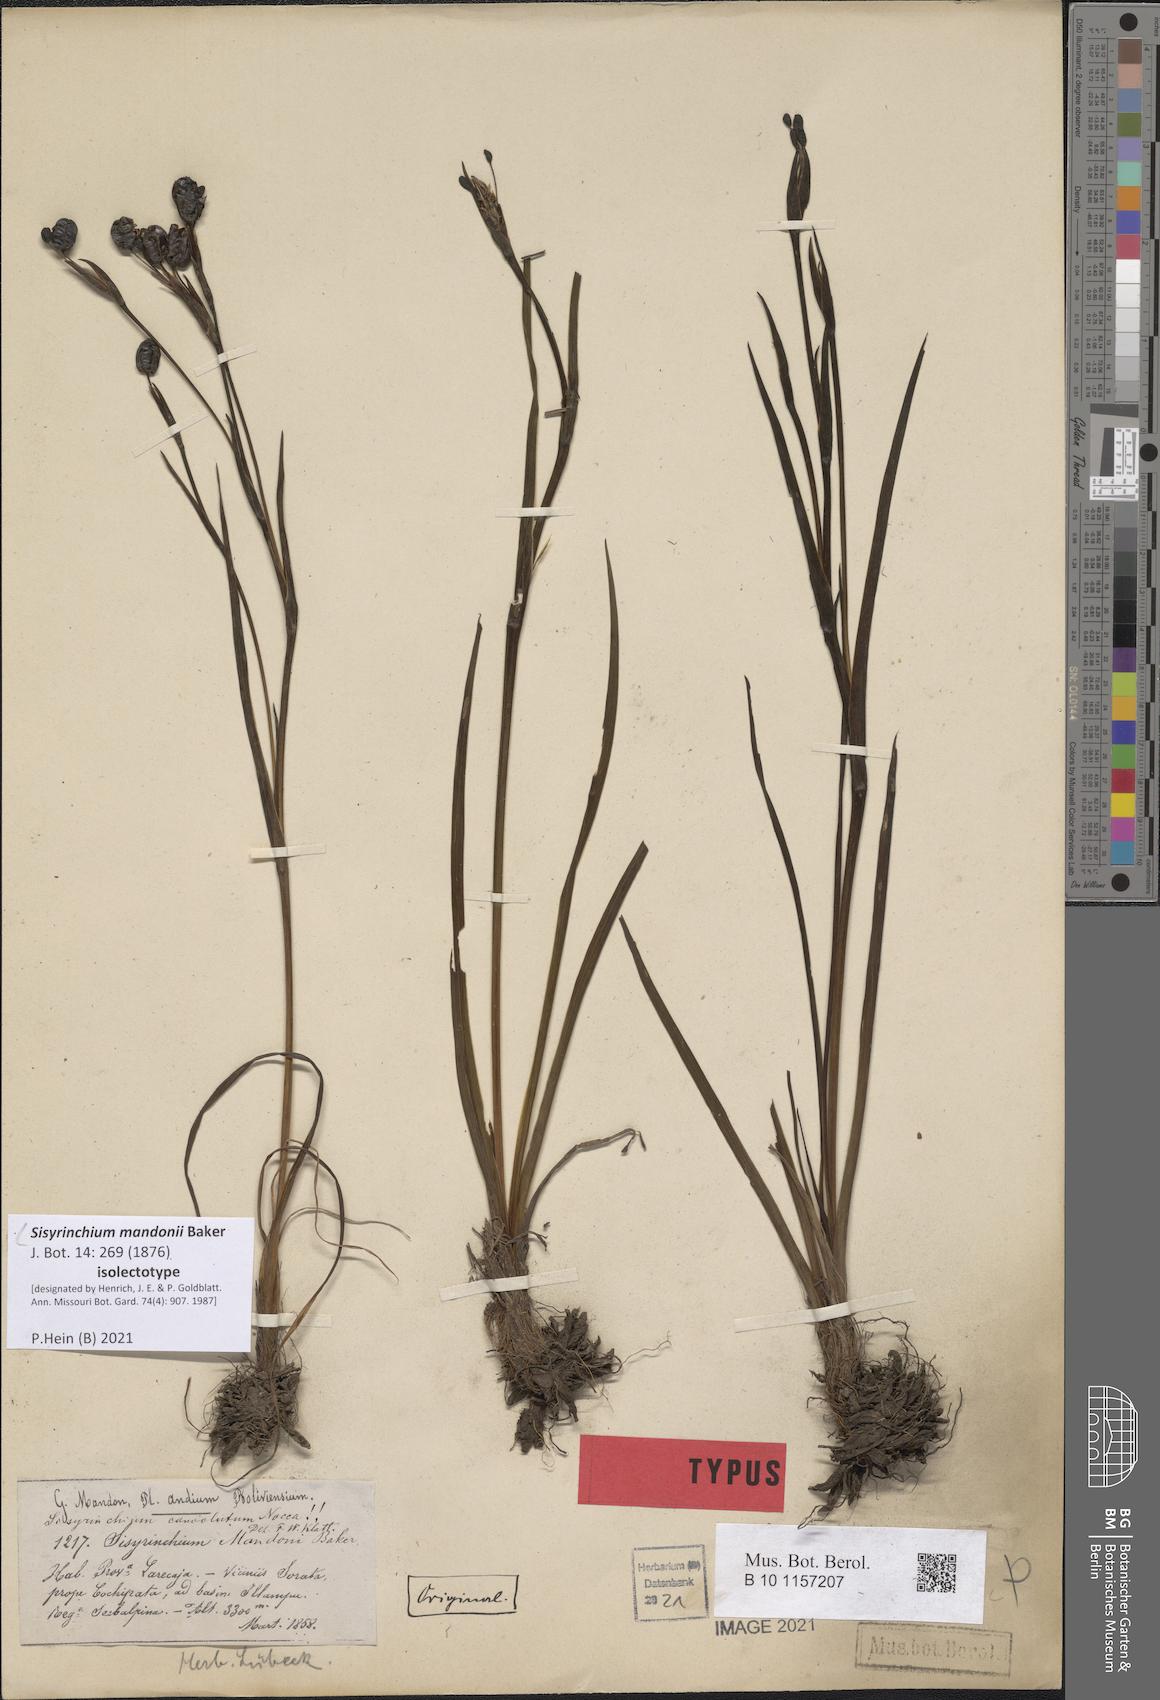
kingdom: Plantae
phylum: Tracheophyta
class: Liliopsida
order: Asparagales
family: Iridaceae
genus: Sisyrinchium
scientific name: Sisyrinchium mandonii
